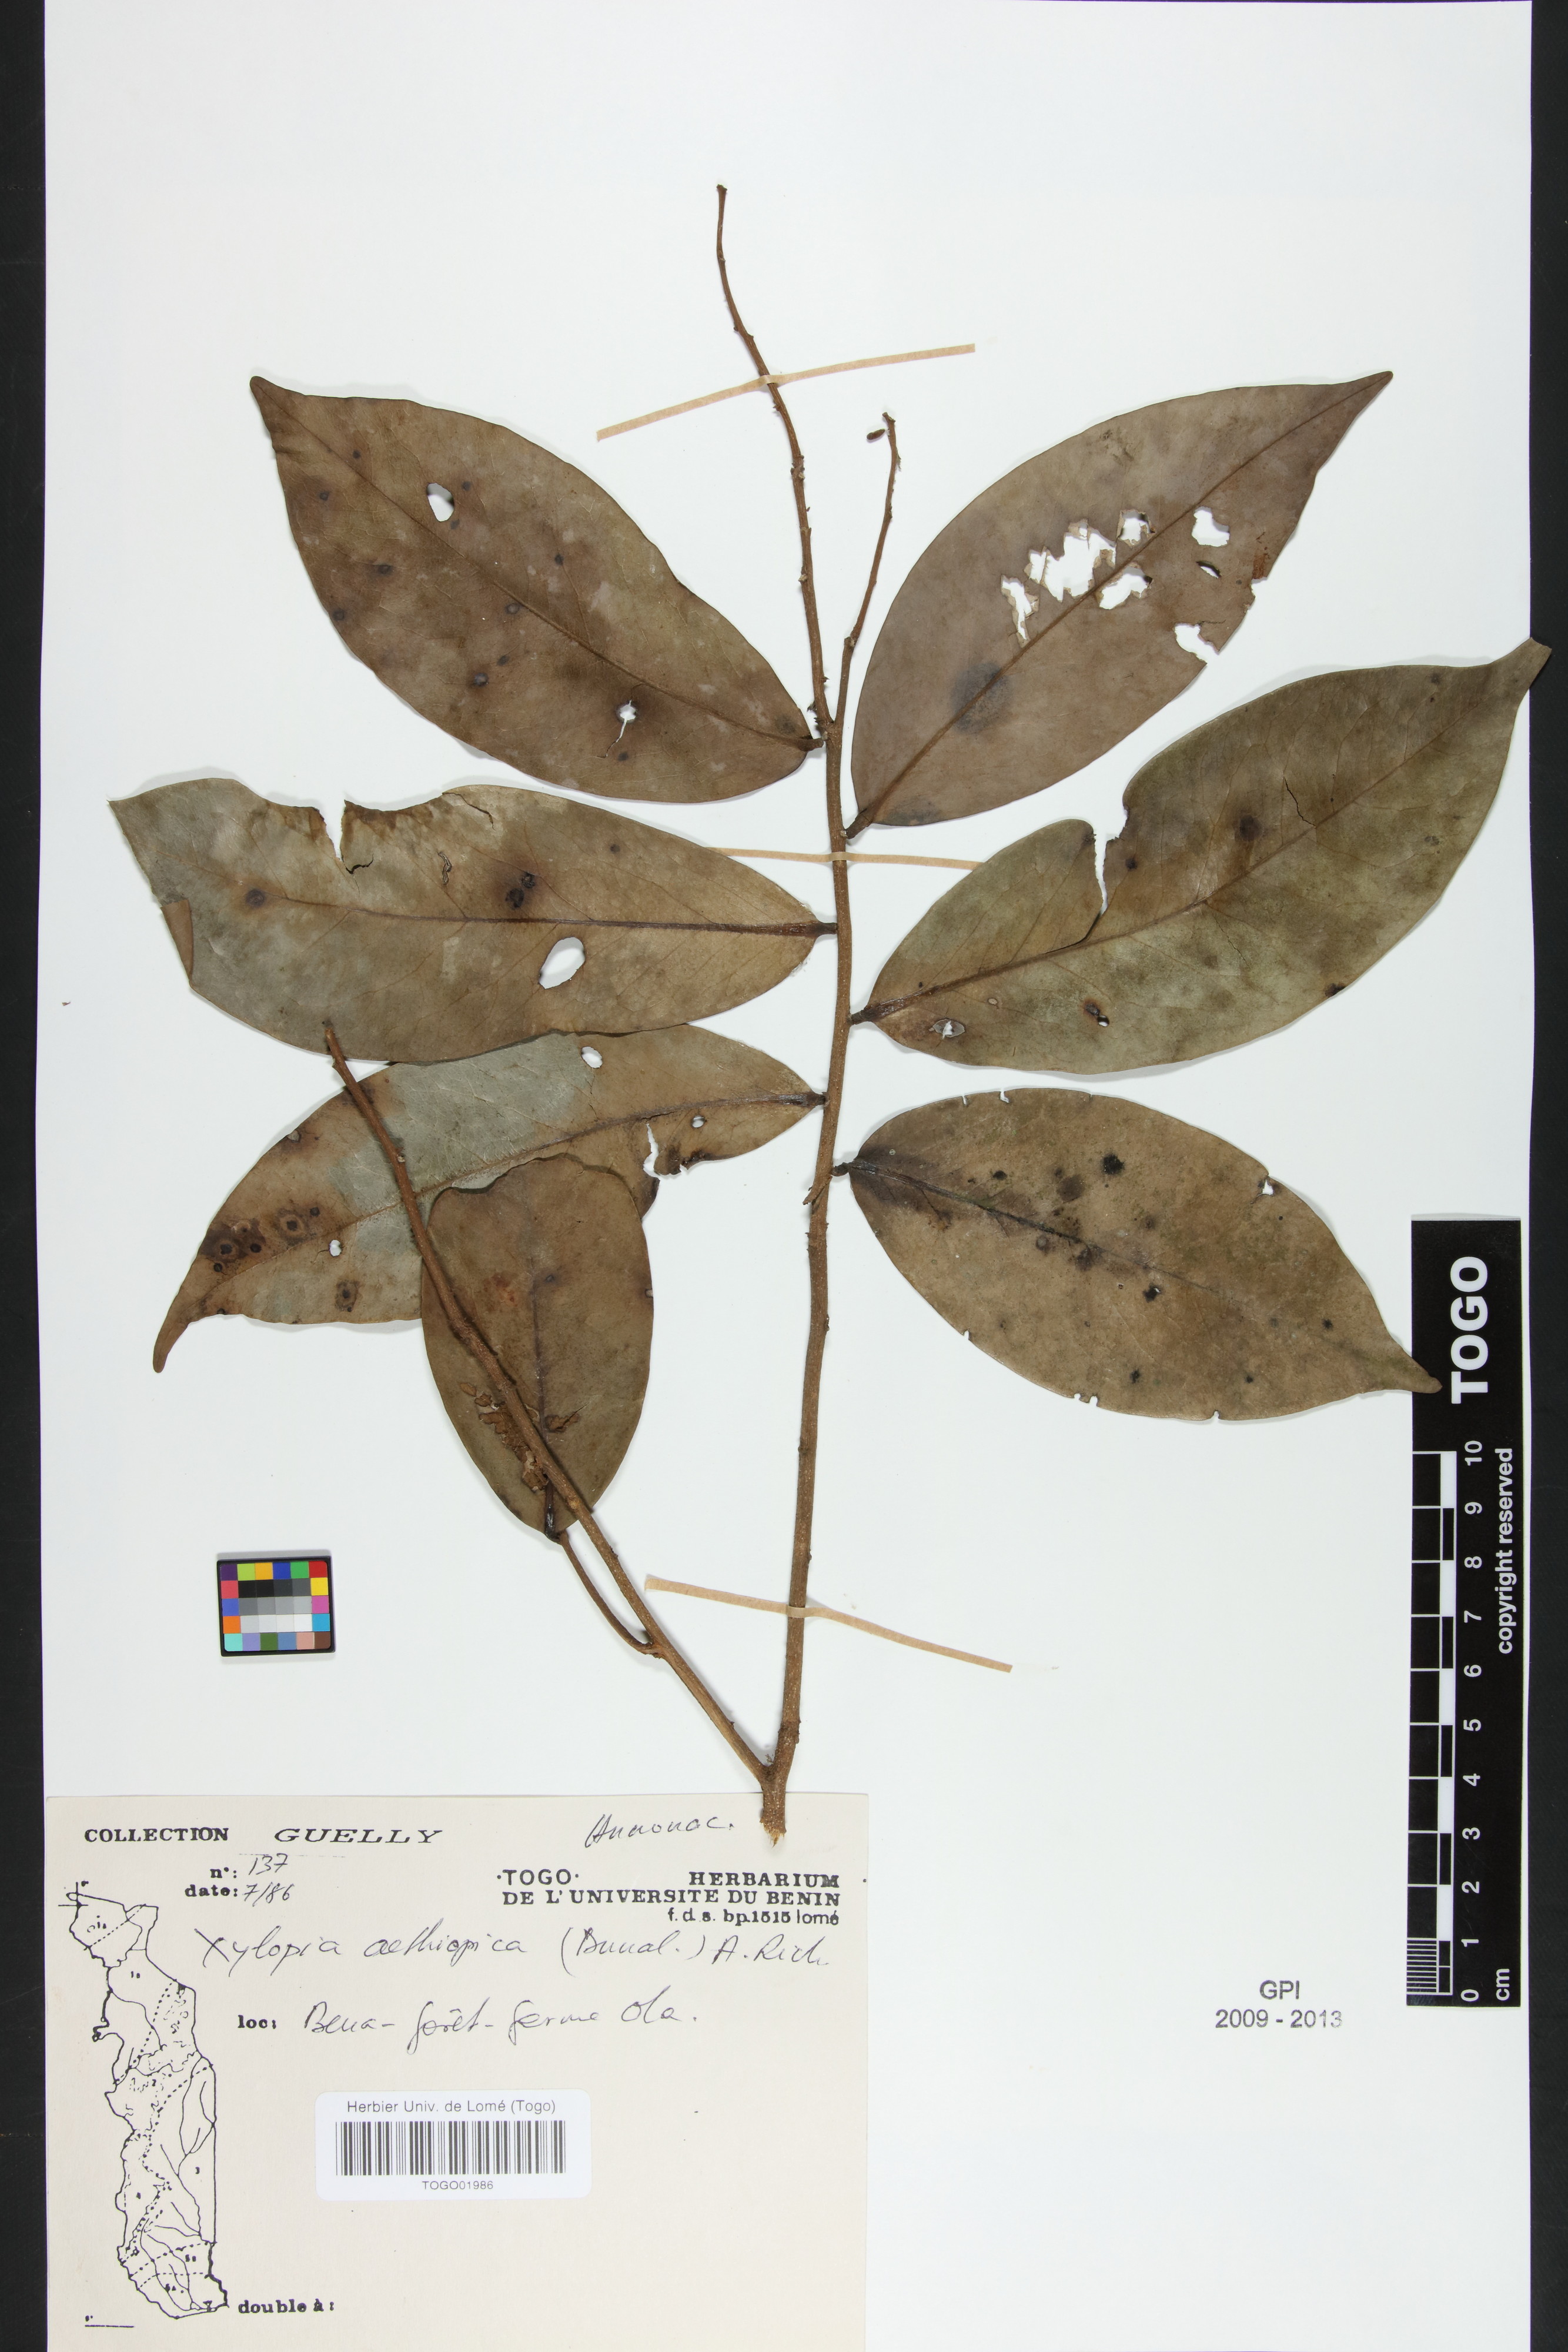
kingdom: Plantae
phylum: Tracheophyta
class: Magnoliopsida
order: Magnoliales
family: Annonaceae
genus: Xylopia
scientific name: Xylopia aethiopica
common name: Ethiopian-pepper
